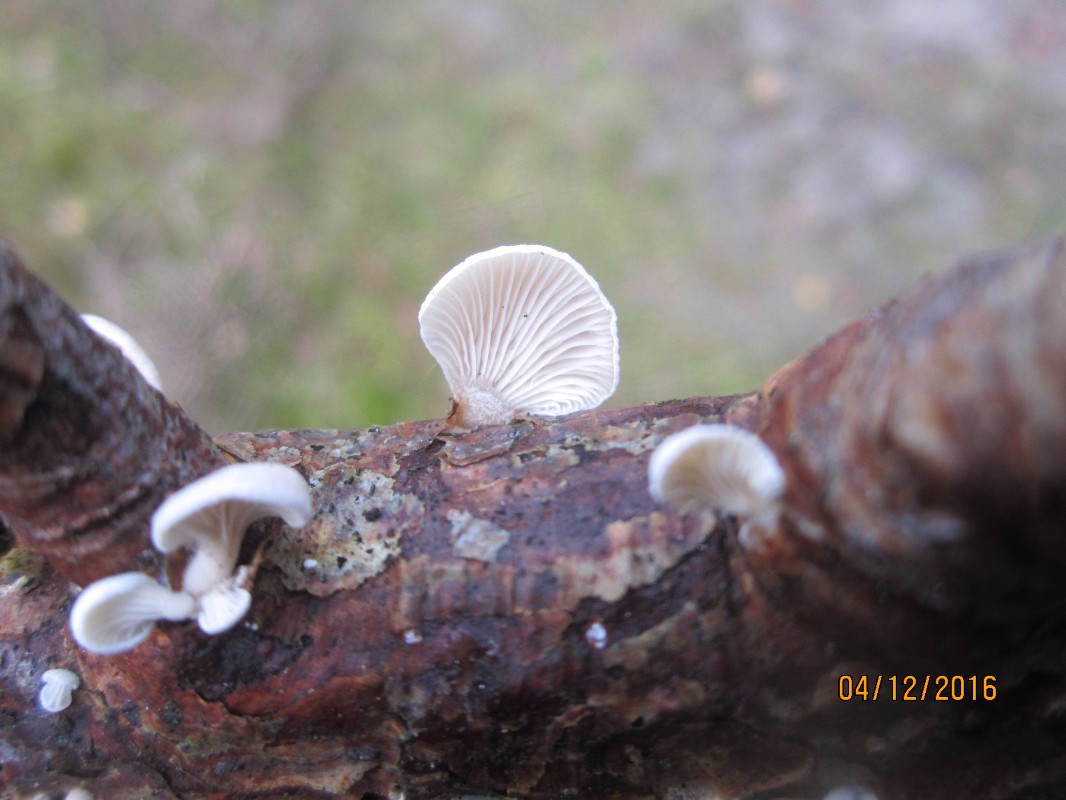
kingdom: Fungi
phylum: Basidiomycota
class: Agaricomycetes
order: Agaricales
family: Mycenaceae
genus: Panellus
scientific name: Panellus mitis
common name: mild epaulethat
